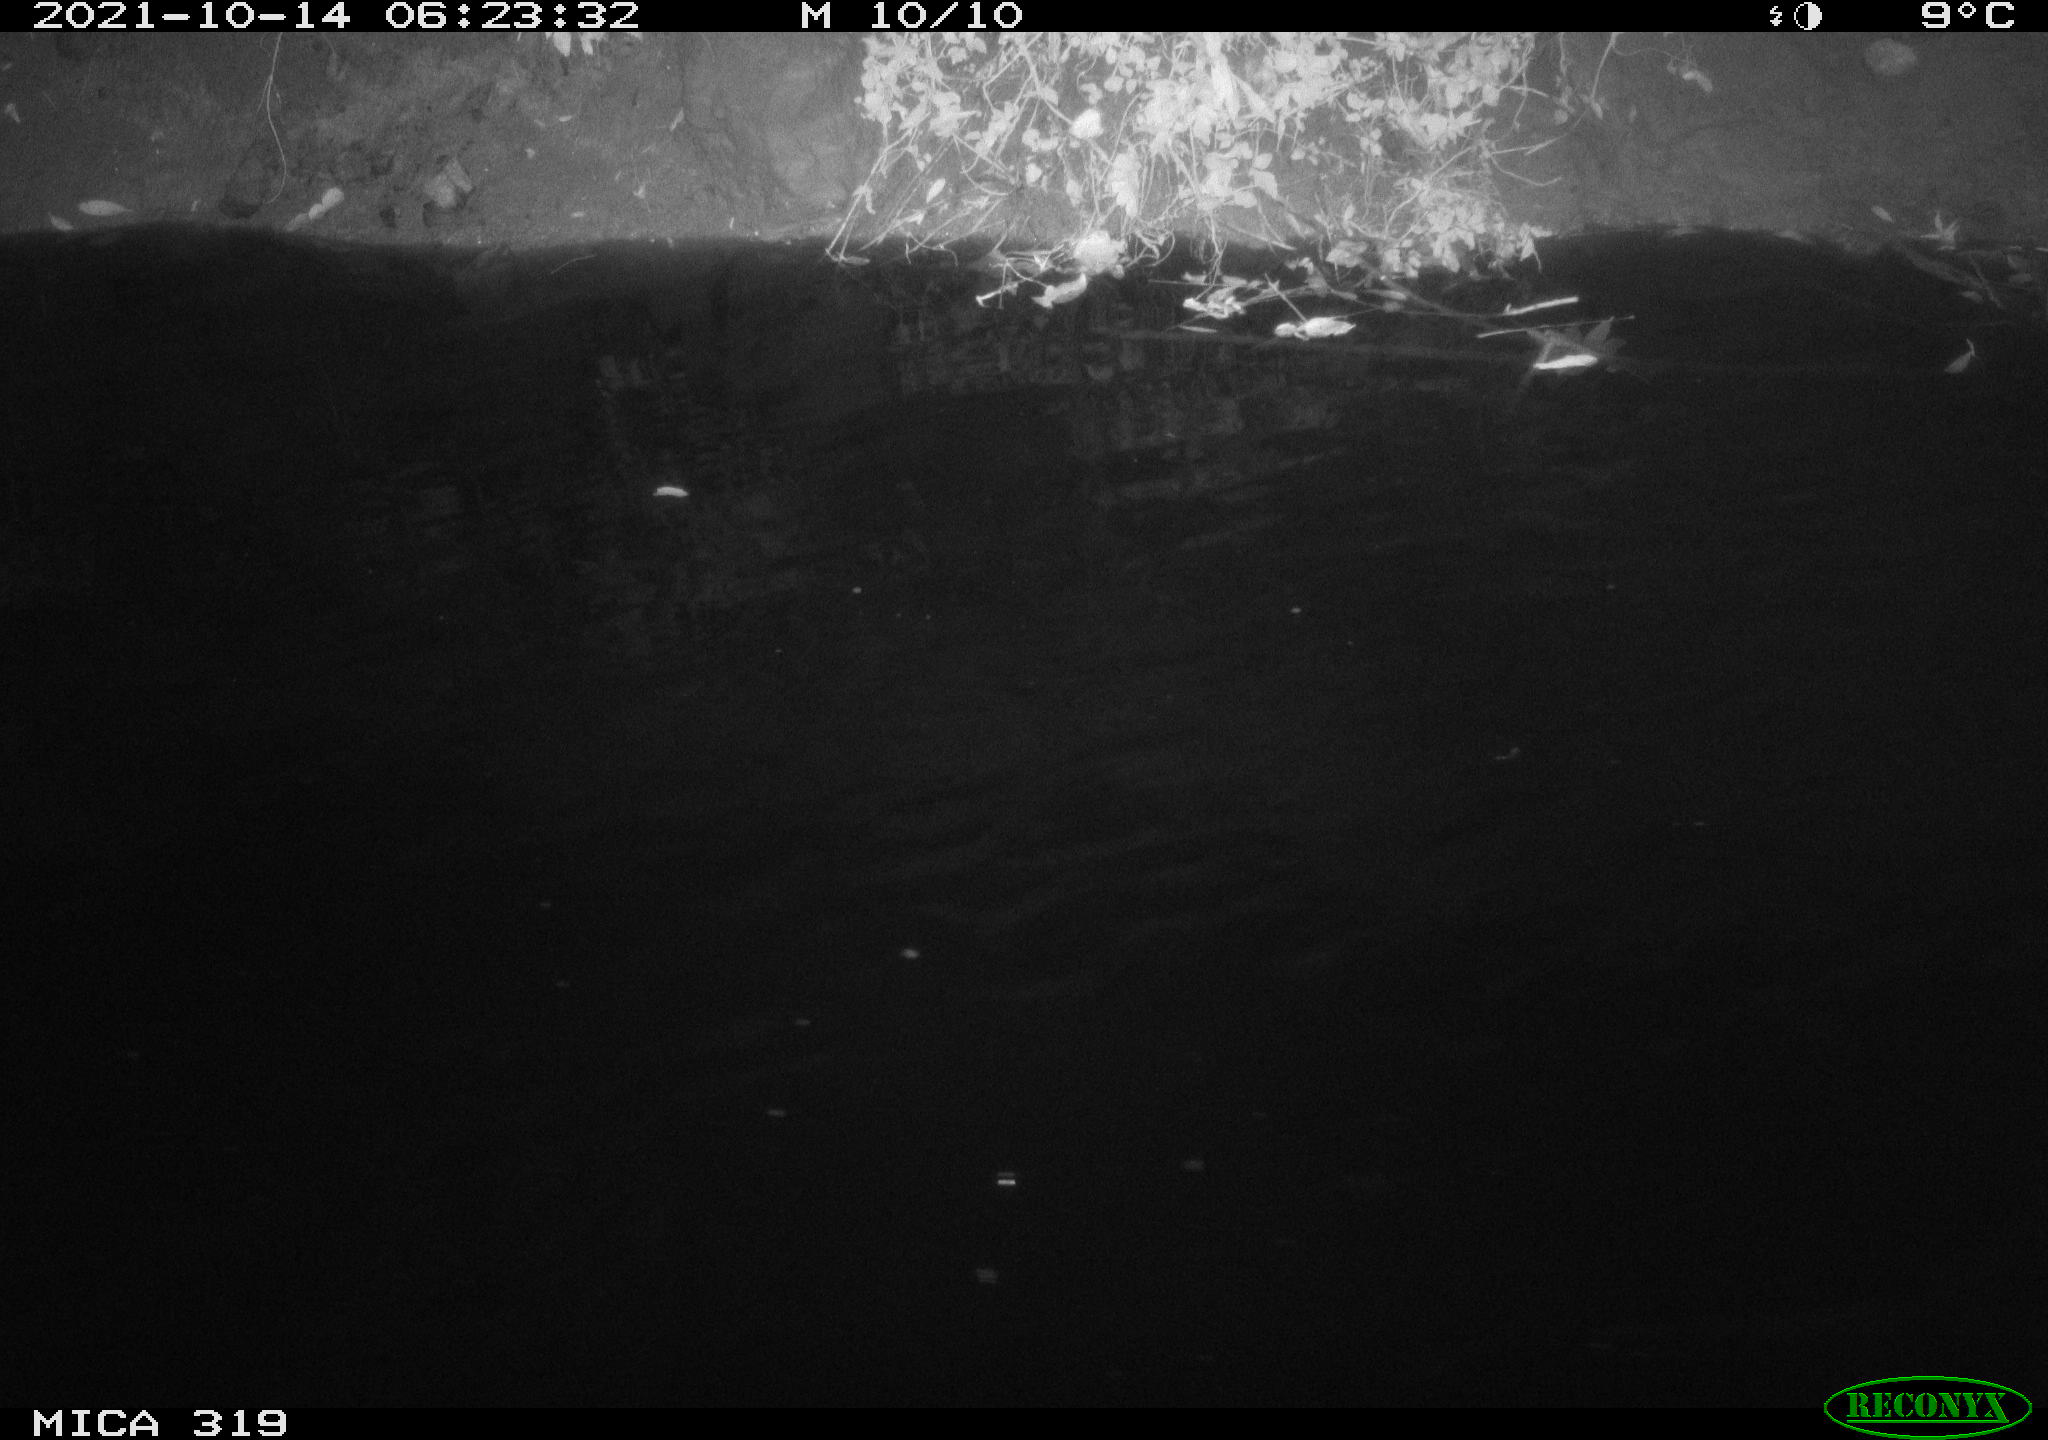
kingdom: Animalia
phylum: Chordata
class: Aves
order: Anseriformes
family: Anatidae
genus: Anas
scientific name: Anas platyrhynchos
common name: Mallard
